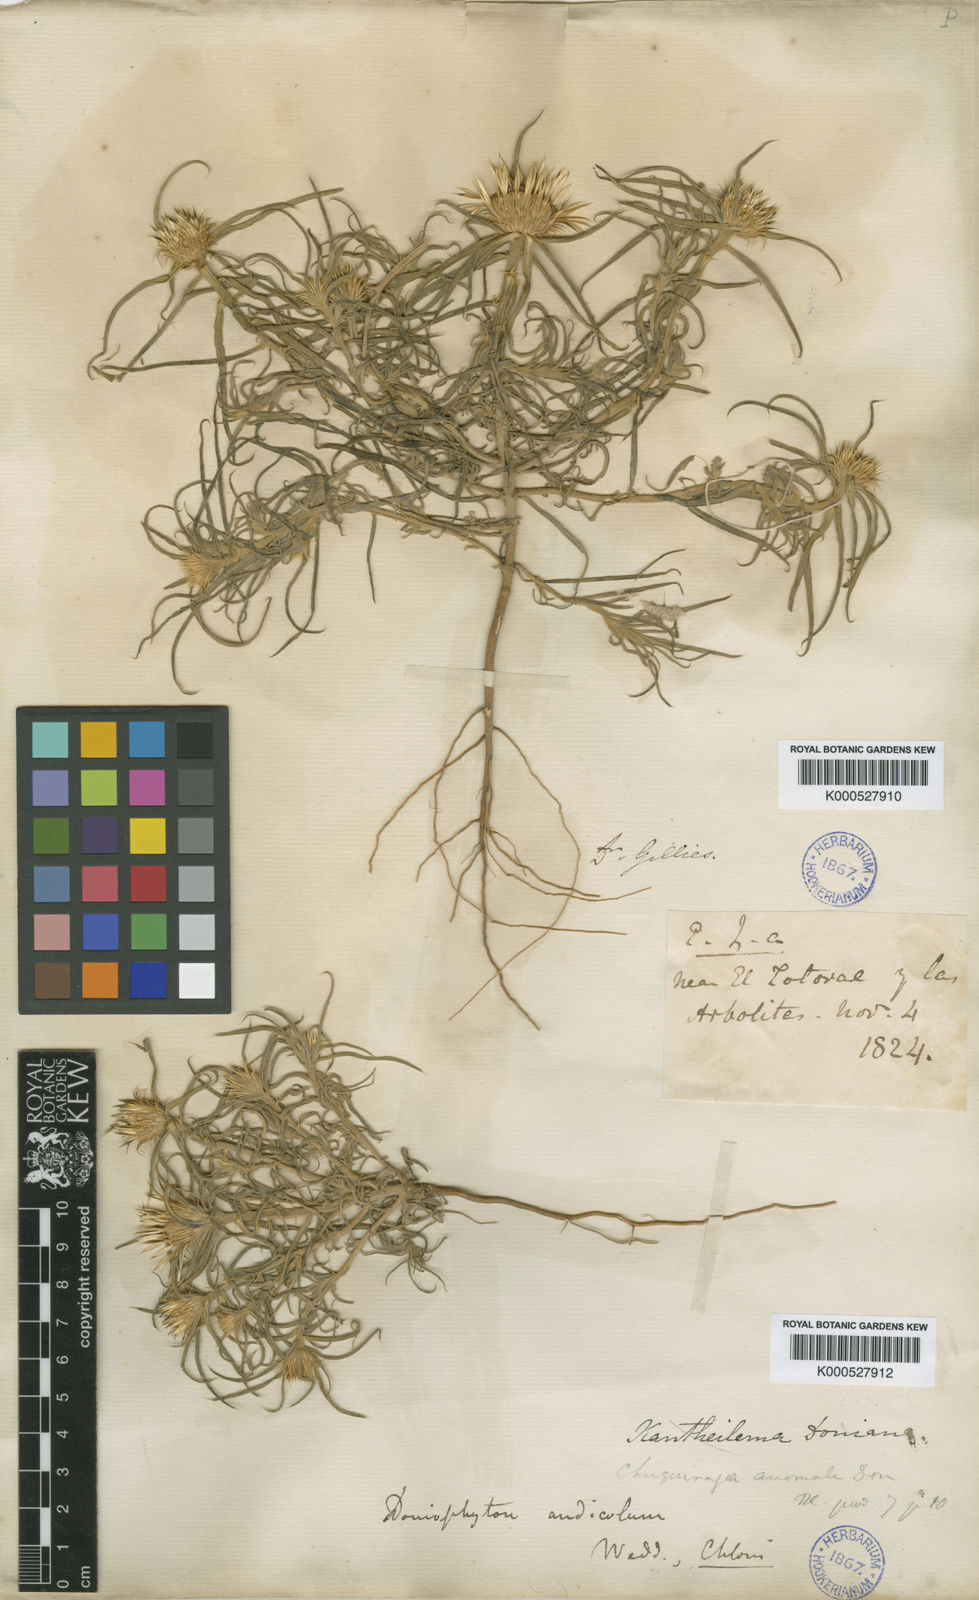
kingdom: Plantae
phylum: Tracheophyta
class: Magnoliopsida
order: Asterales
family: Asteraceae
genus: Doniophyton
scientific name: Doniophyton anomalum
